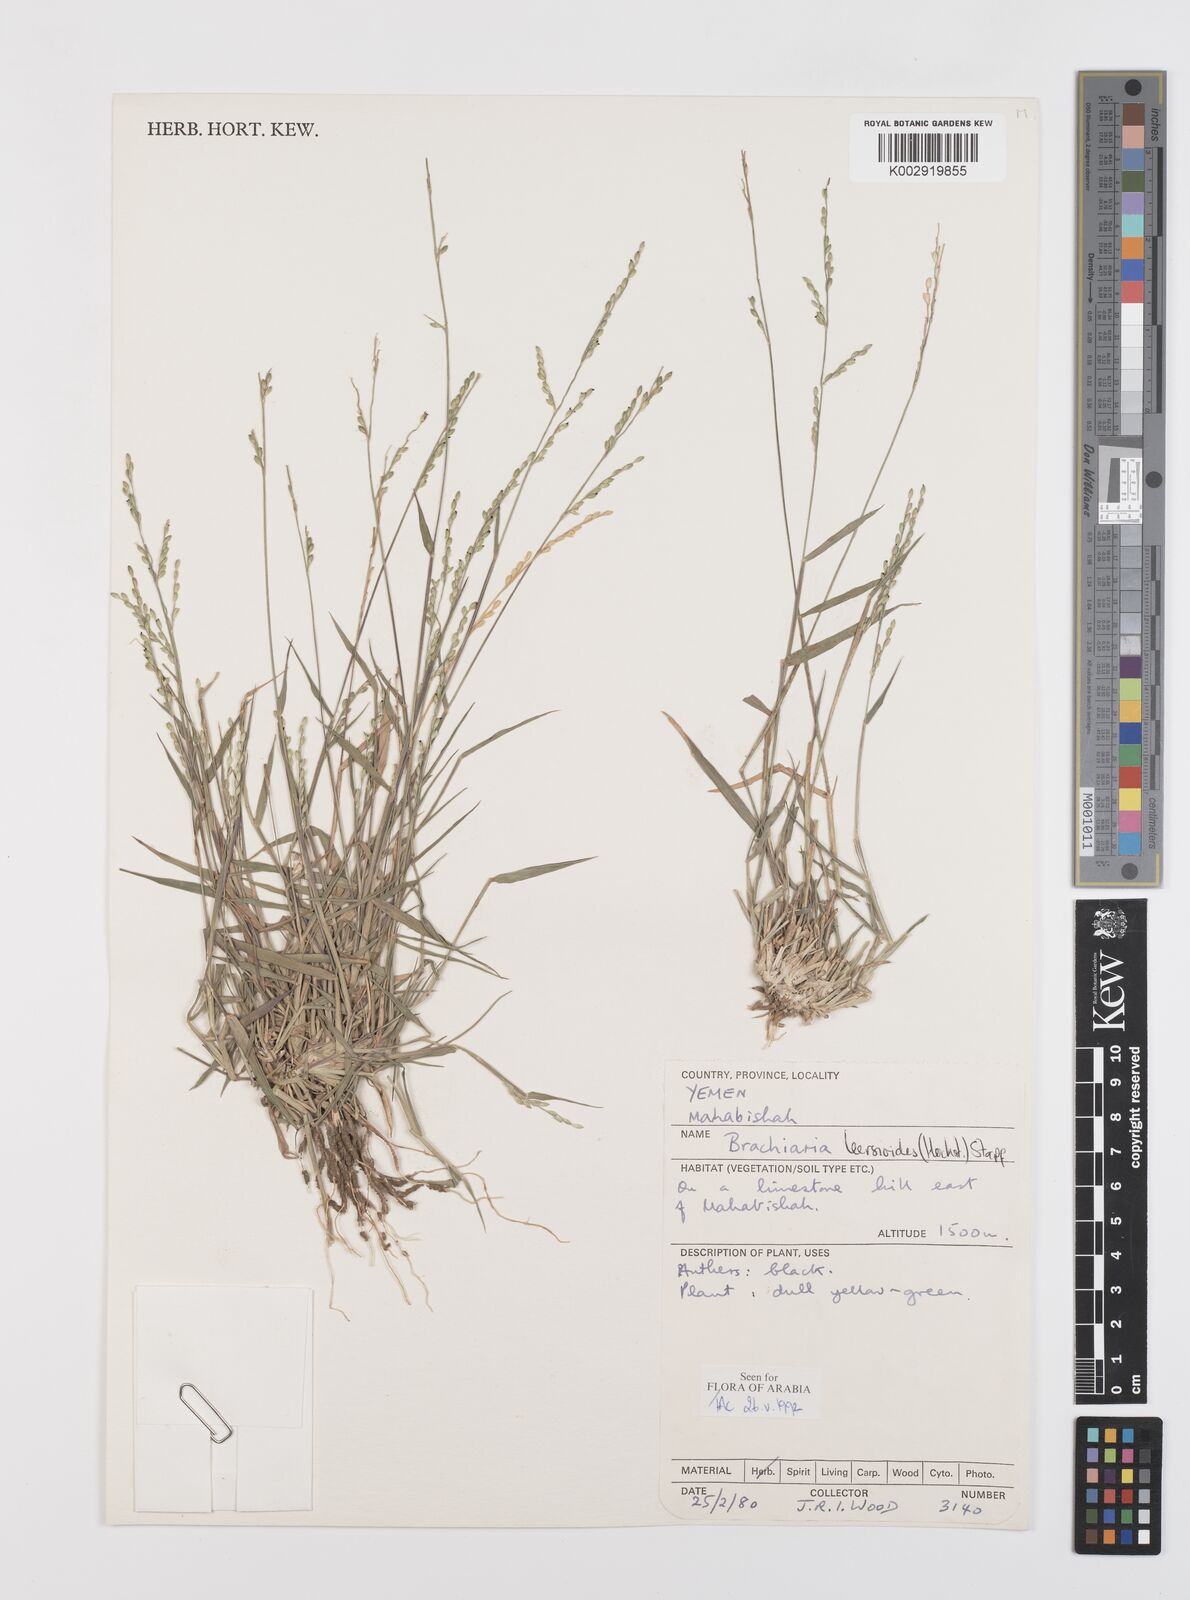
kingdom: Plantae
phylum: Tracheophyta
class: Liliopsida
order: Poales
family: Poaceae
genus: Urochloa
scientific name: Urochloa leersioides
